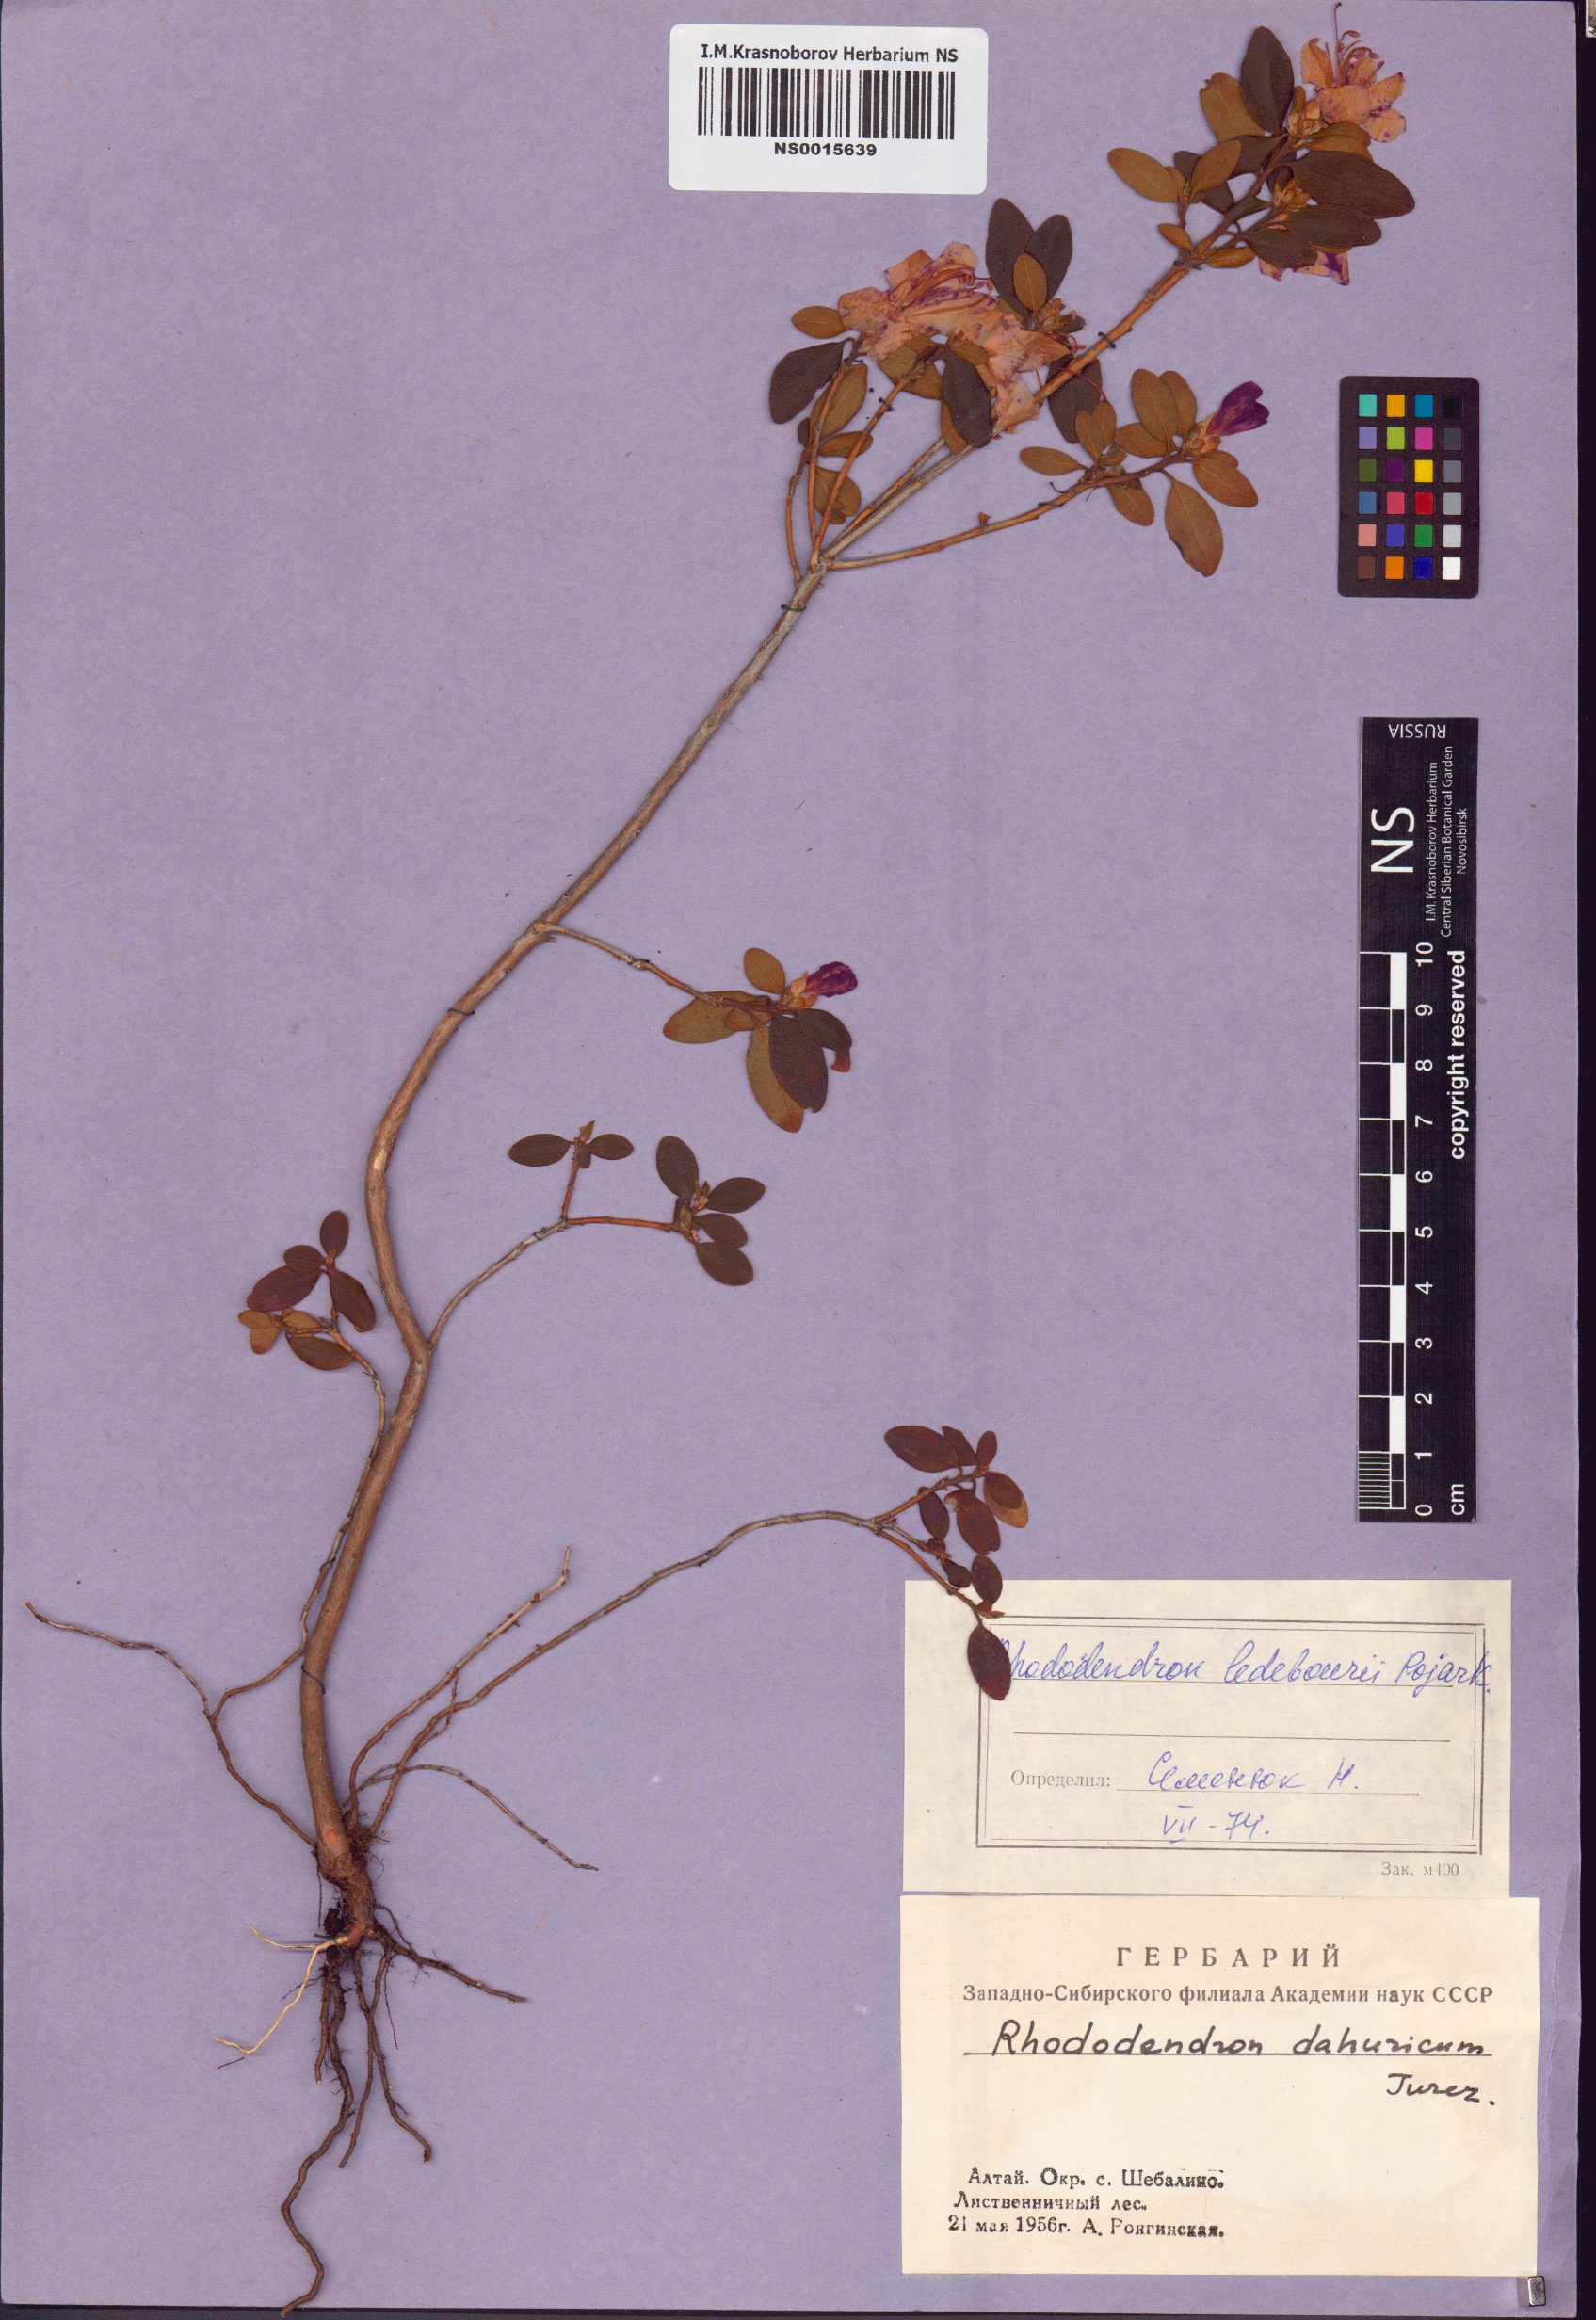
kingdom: Plantae
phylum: Tracheophyta
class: Magnoliopsida
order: Ericales
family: Ericaceae
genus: Rhododendron
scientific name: Rhododendron dauricum
